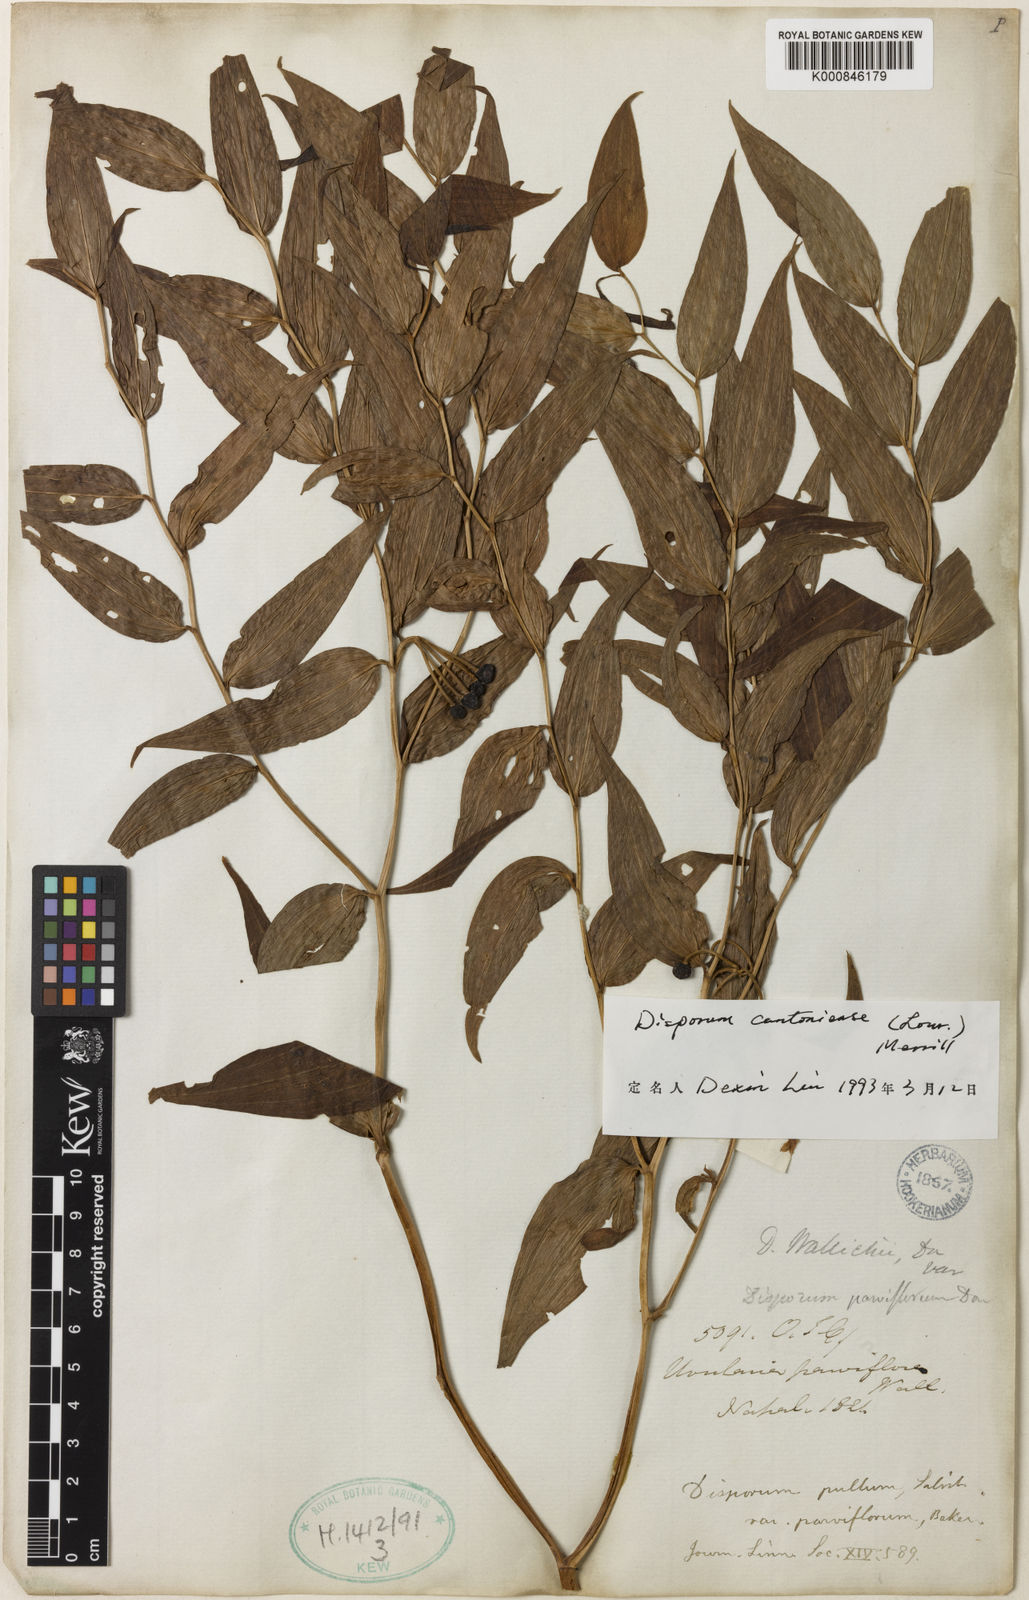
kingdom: Plantae
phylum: Tracheophyta
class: Liliopsida
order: Liliales
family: Colchicaceae
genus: Disporum
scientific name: Disporum cantoniense
